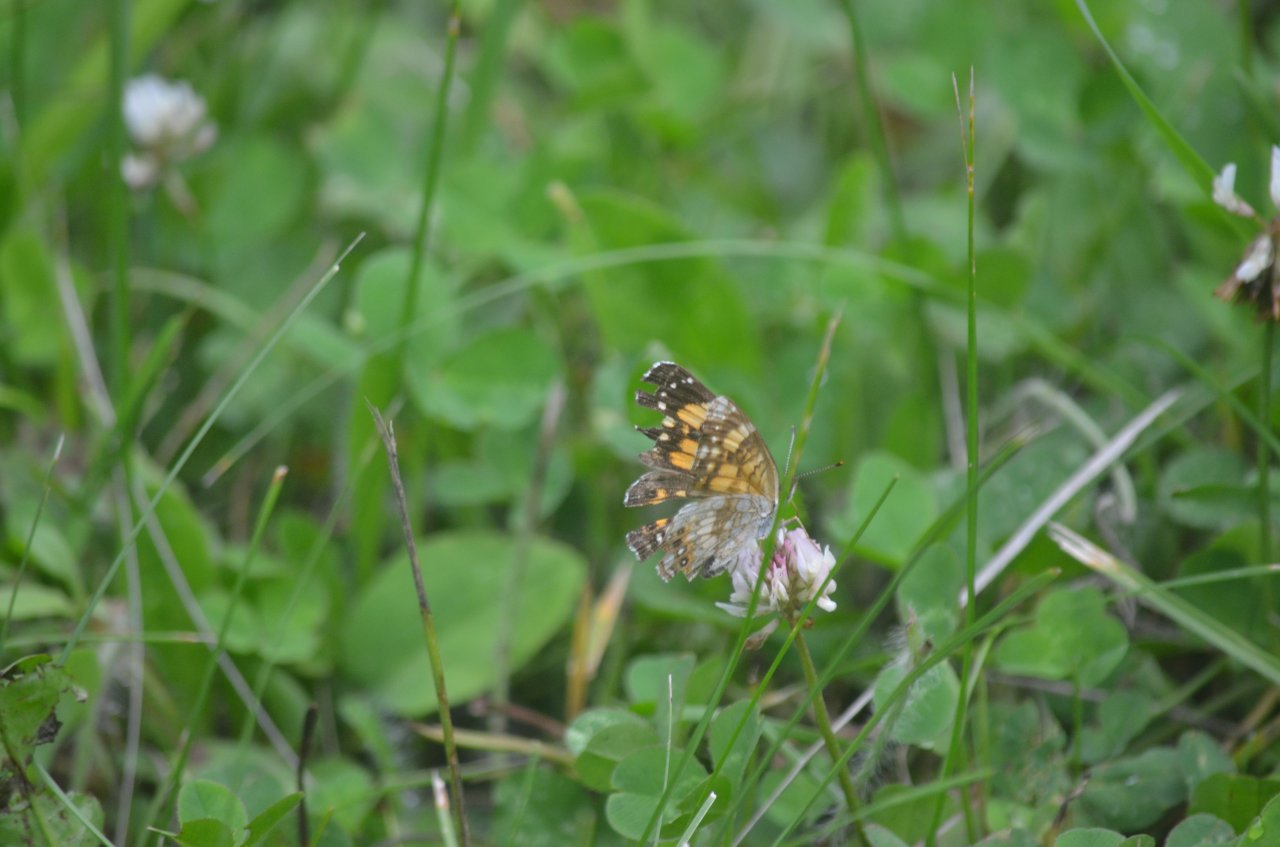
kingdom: Animalia
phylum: Arthropoda
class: Insecta
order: Lepidoptera
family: Nymphalidae
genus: Chlosyne
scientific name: Chlosyne nycteis
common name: Silvery Checkerspot
